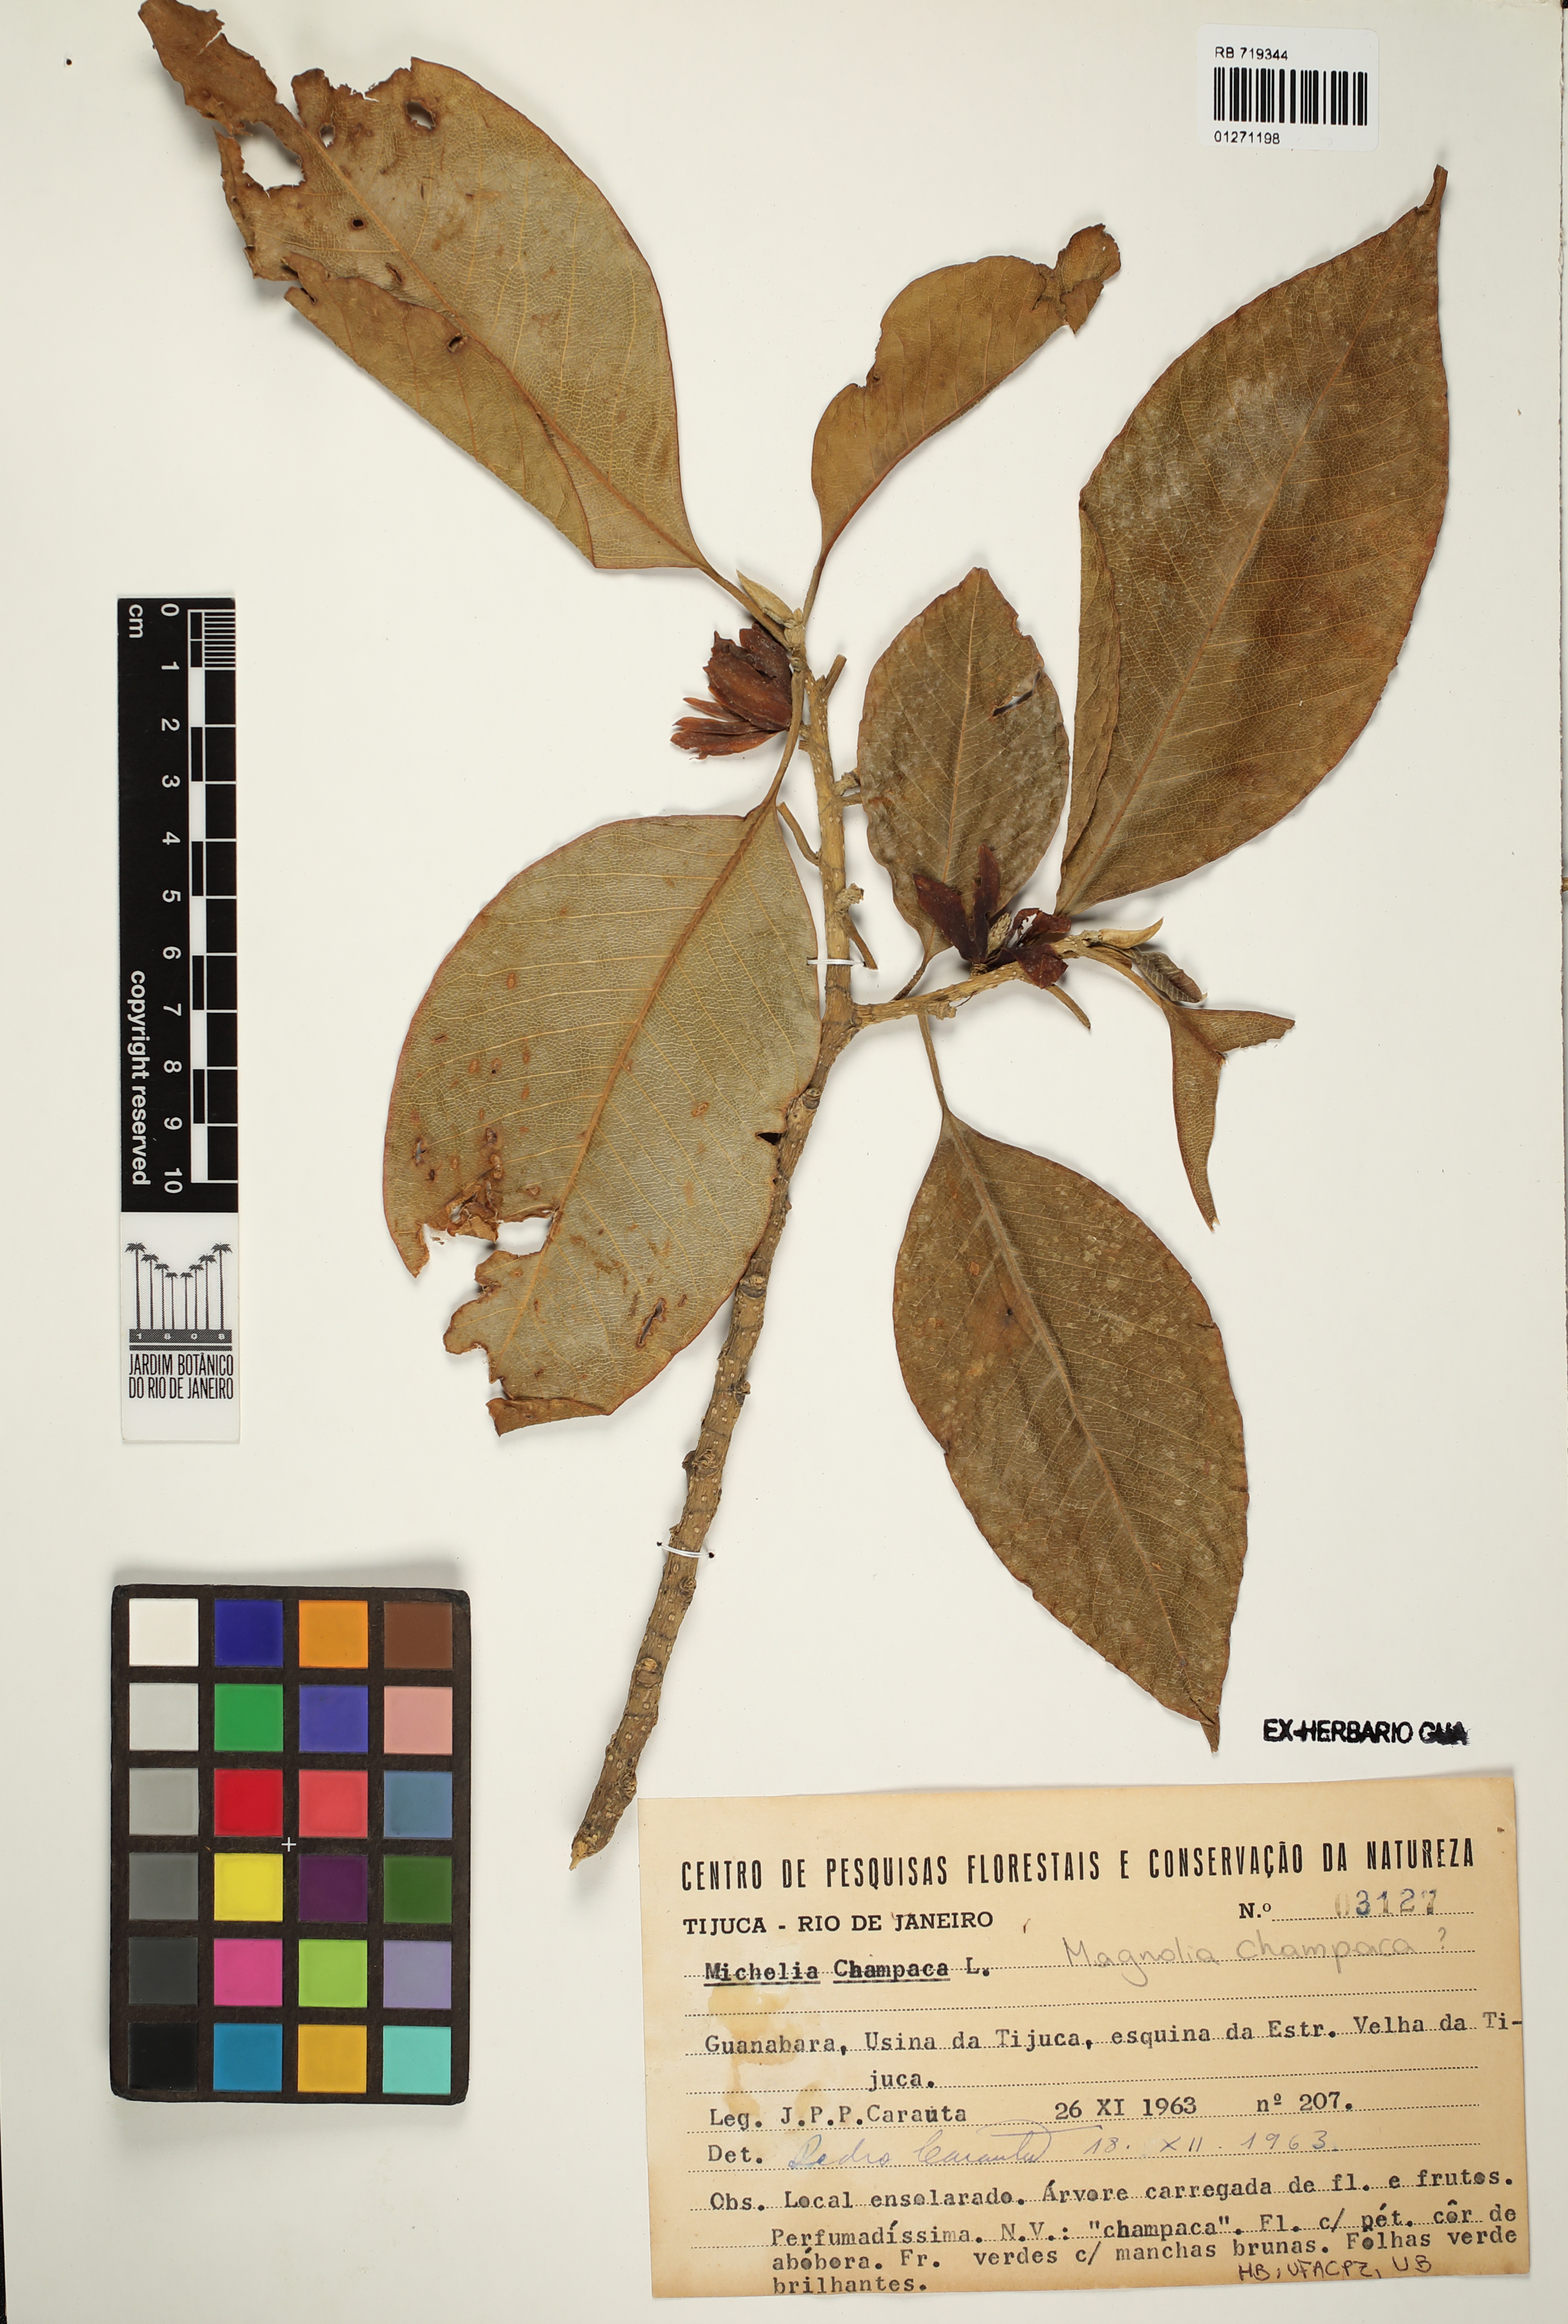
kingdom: Plantae
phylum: Tracheophyta
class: Magnoliopsida
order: Magnoliales
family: Magnoliaceae
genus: Magnolia
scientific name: Magnolia champaca
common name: Champak
